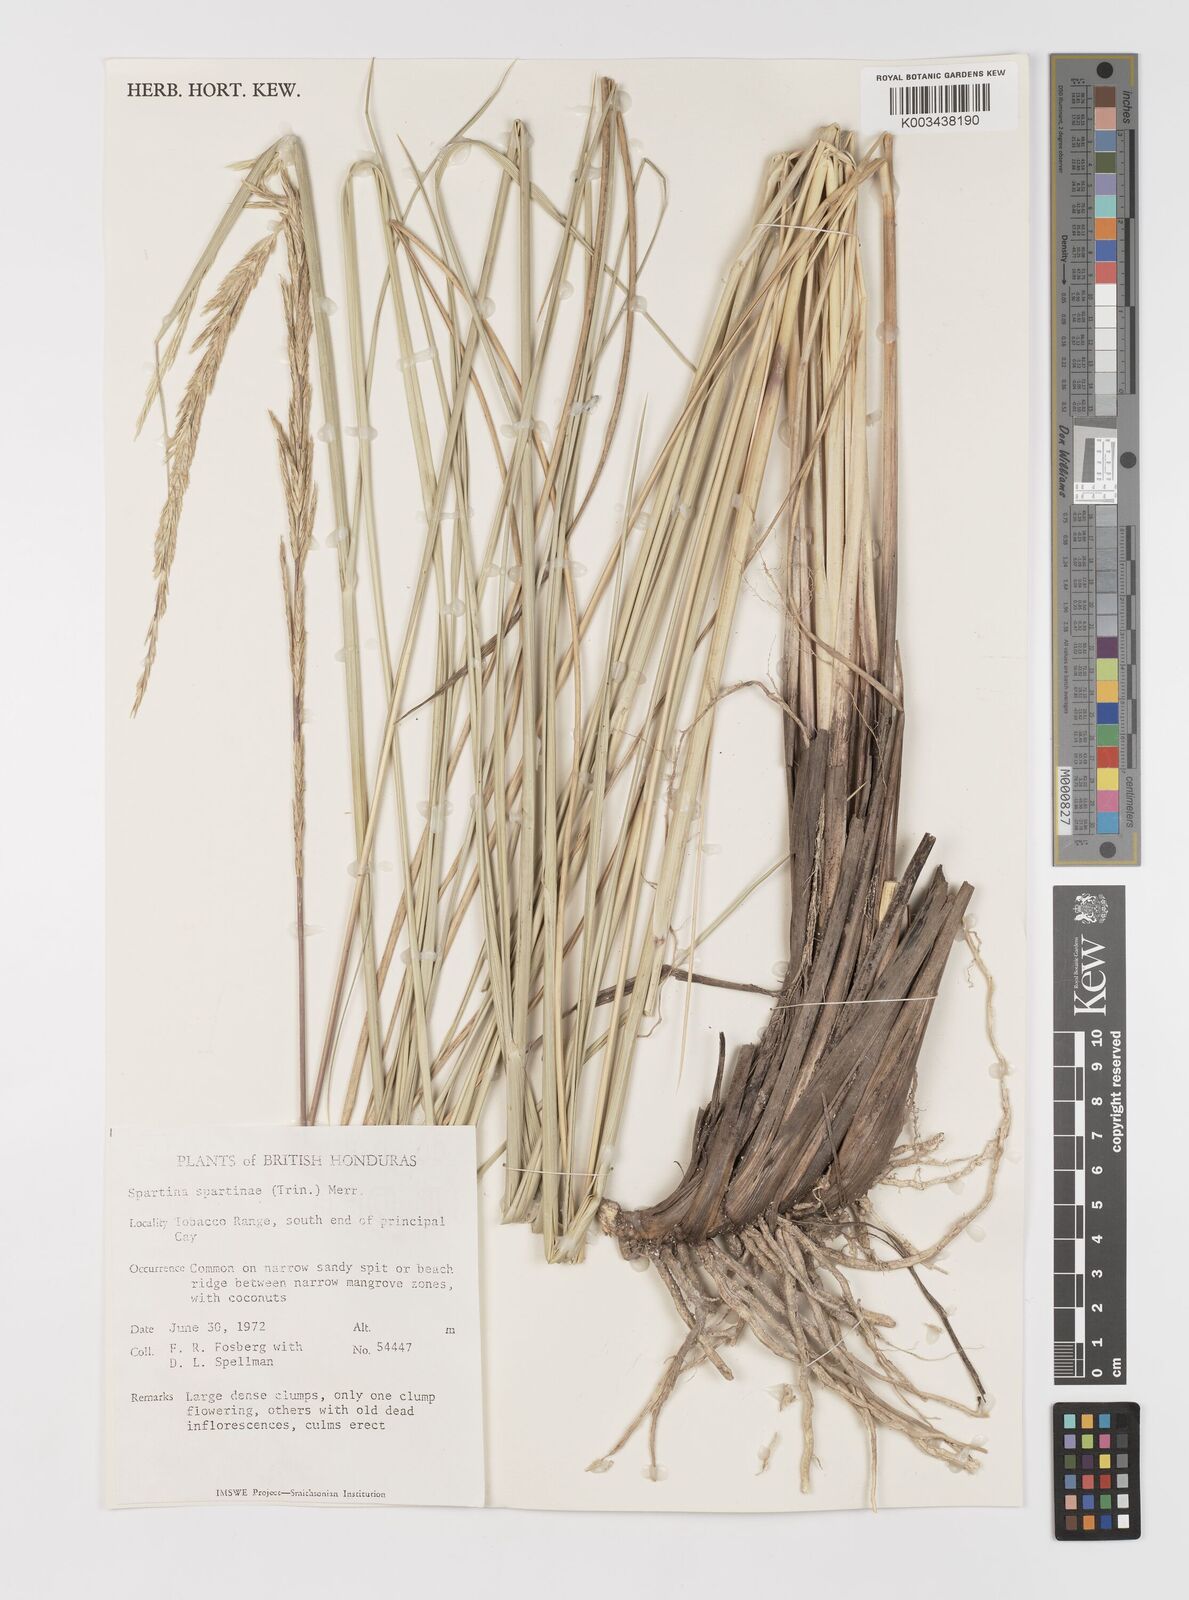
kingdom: Plantae
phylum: Tracheophyta
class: Liliopsida
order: Poales
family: Poaceae
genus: Sporobolus
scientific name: Sporobolus spartinae
